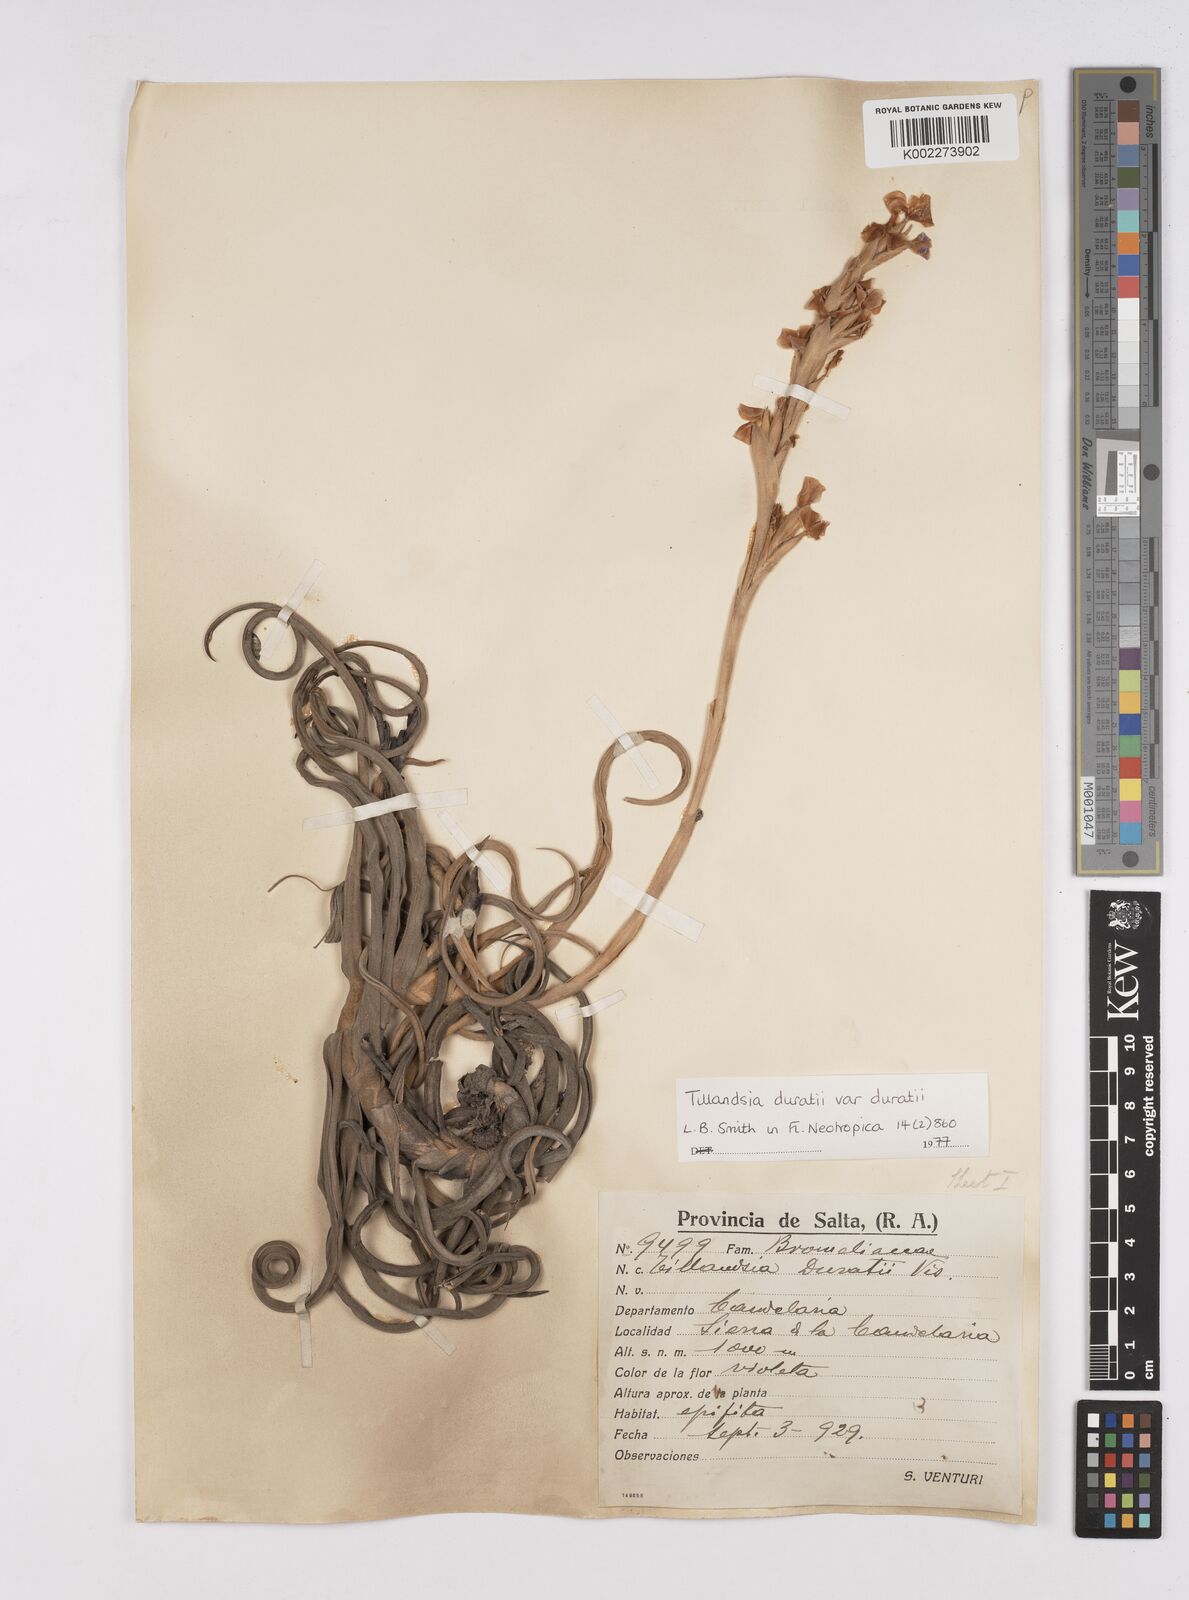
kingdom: Plantae
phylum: Tracheophyta
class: Liliopsida
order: Poales
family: Bromeliaceae
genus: Tillandsia
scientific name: Tillandsia duratii
